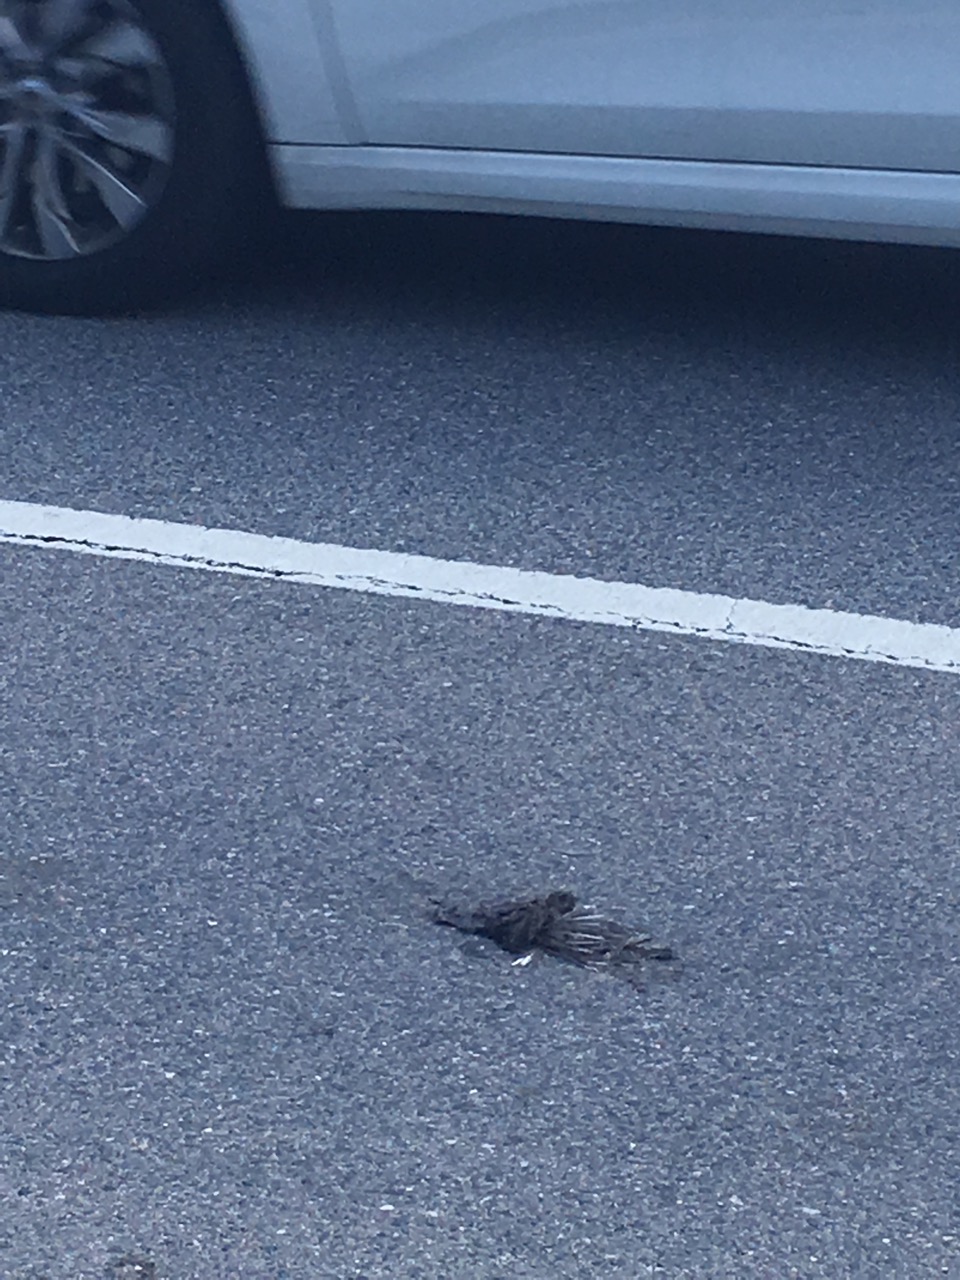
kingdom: Animalia
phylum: Chordata
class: Aves
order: Passeriformes
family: Turdidae
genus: Turdus
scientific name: Turdus merula
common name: Common blackbird
